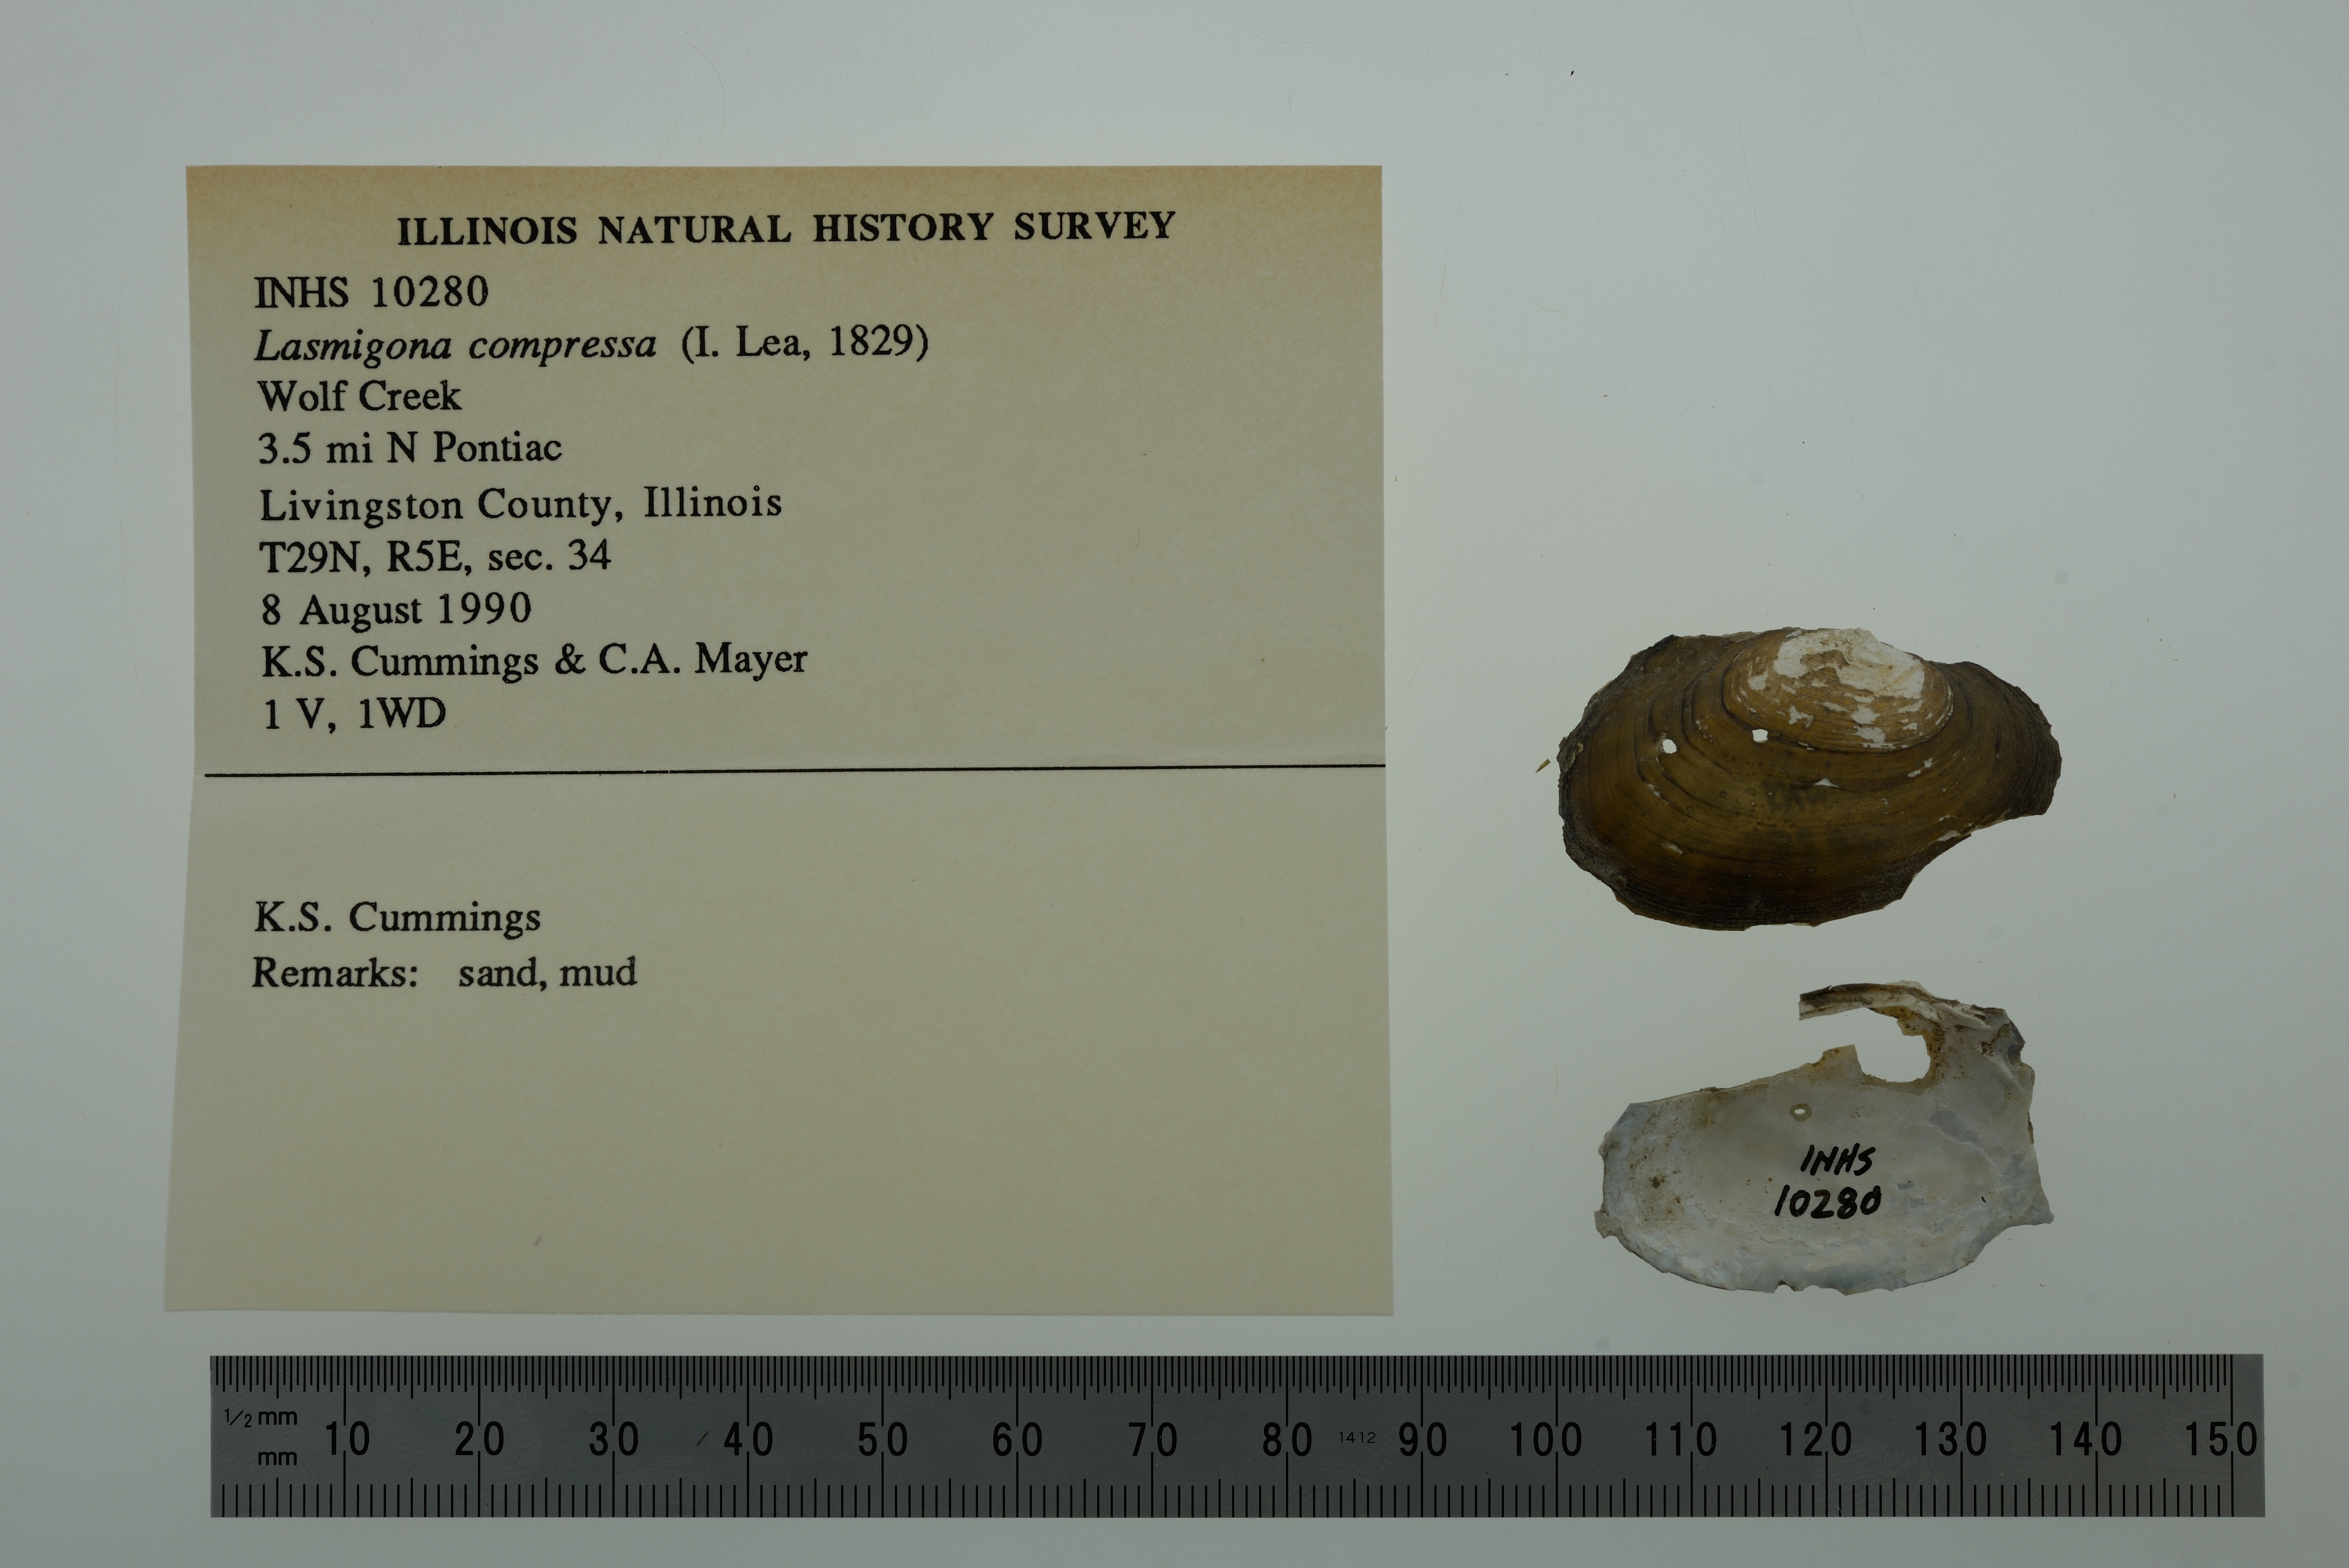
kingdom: Animalia
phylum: Mollusca
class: Bivalvia
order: Unionida
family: Unionidae
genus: Lasmigona
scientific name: Lasmigona compressa
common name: Creek heelsplitter
